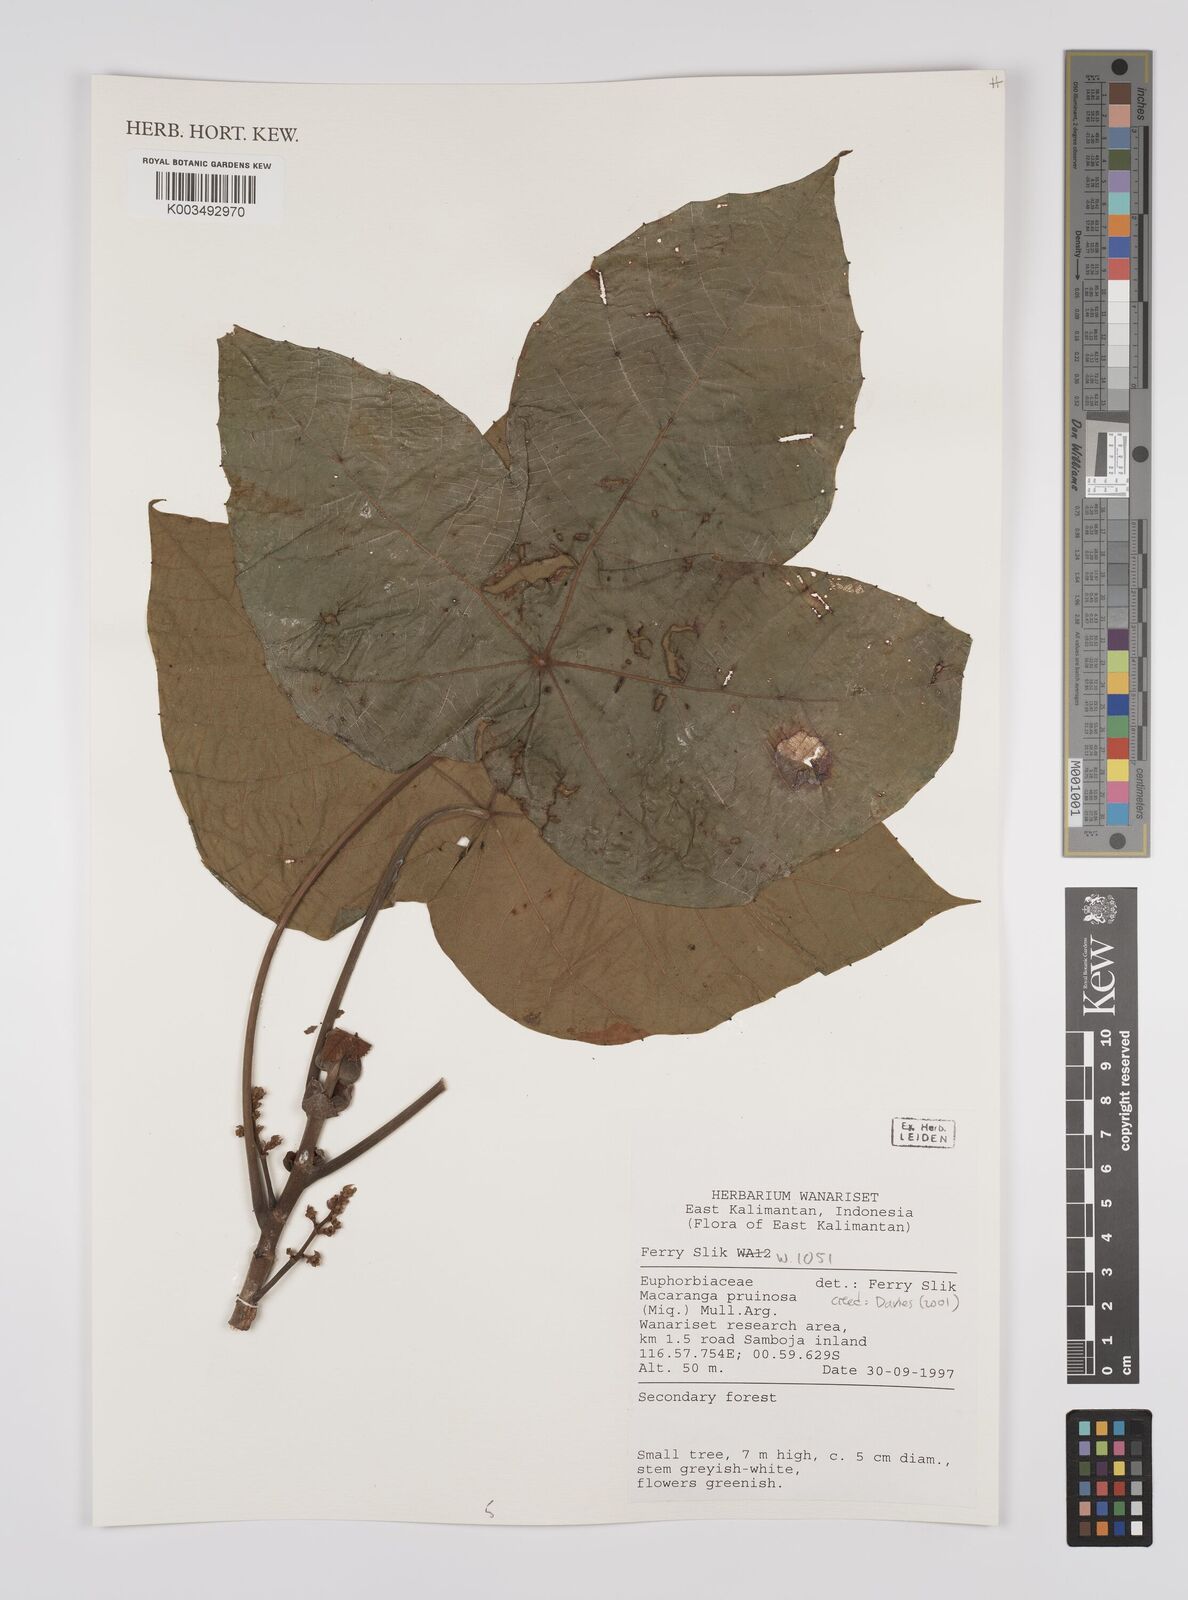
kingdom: Plantae
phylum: Tracheophyta
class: Magnoliopsida
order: Malpighiales
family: Euphorbiaceae
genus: Macaranga
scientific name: Macaranga pruinosa
